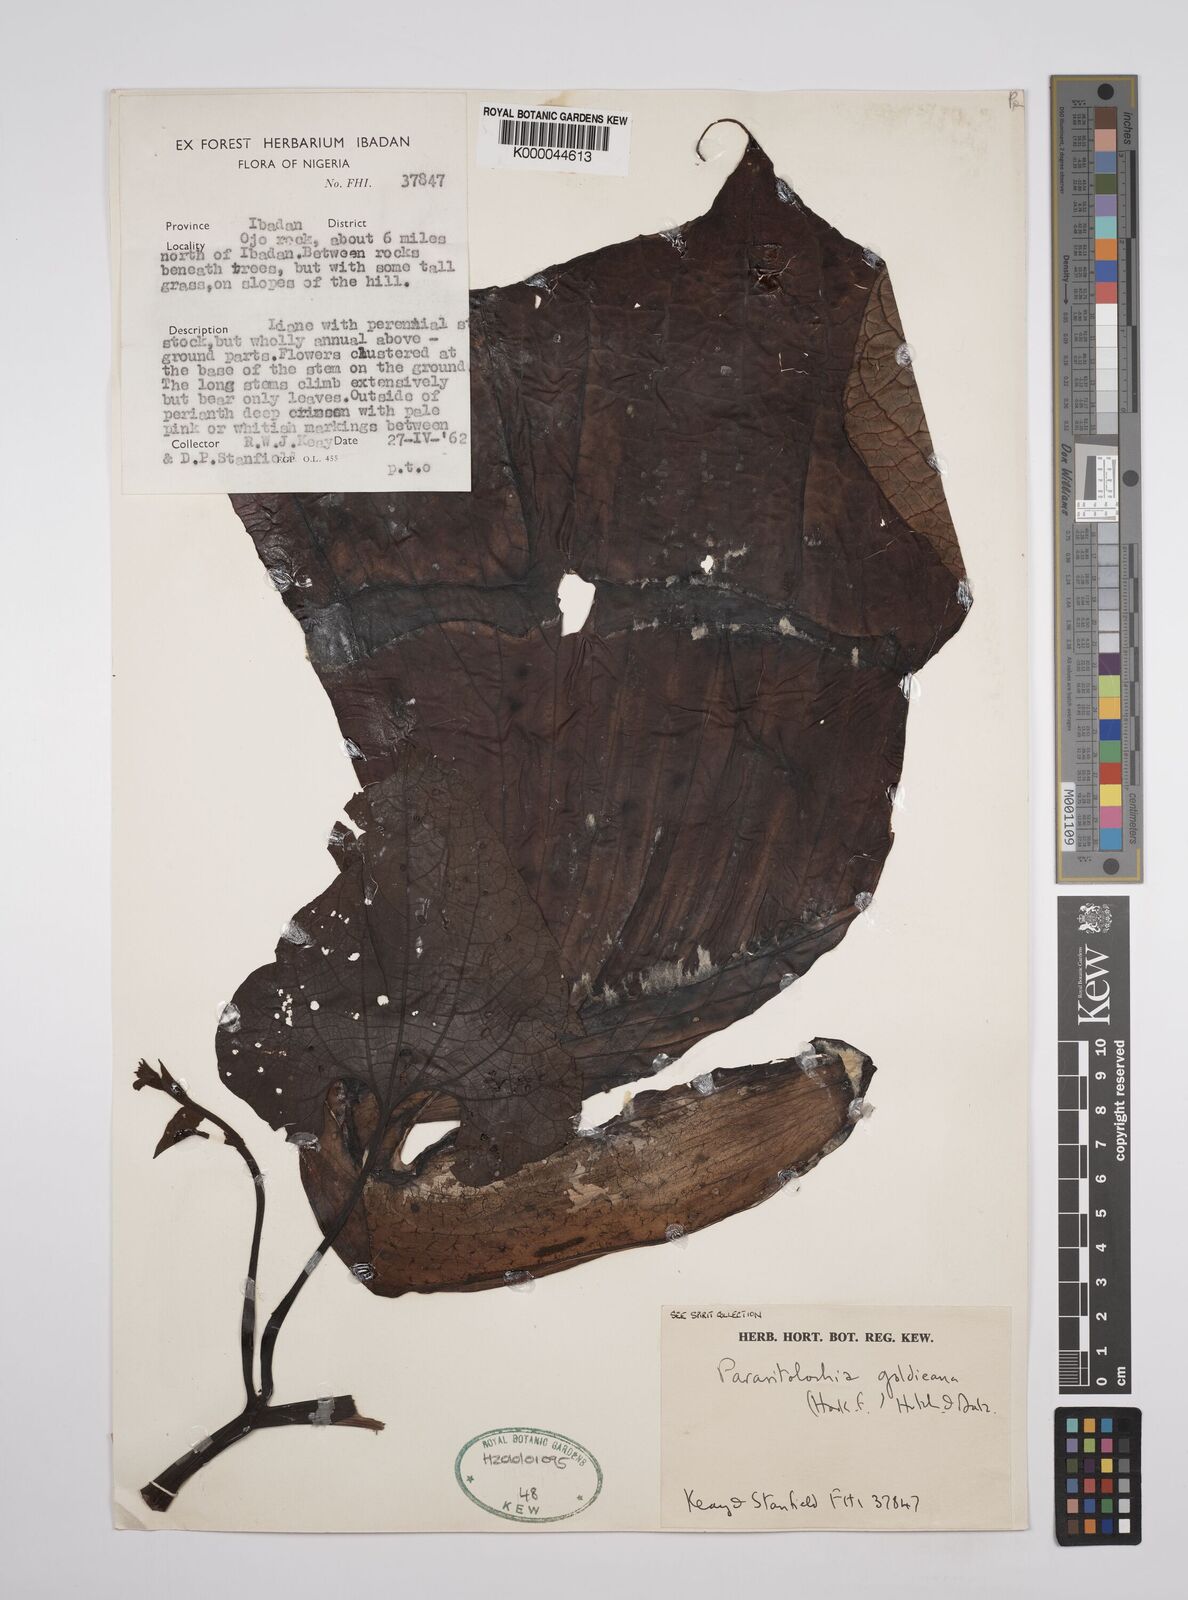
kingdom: Plantae
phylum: Tracheophyta
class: Magnoliopsida
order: Piperales
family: Aristolochiaceae
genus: Aristolochia
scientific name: Aristolochia goldieana
